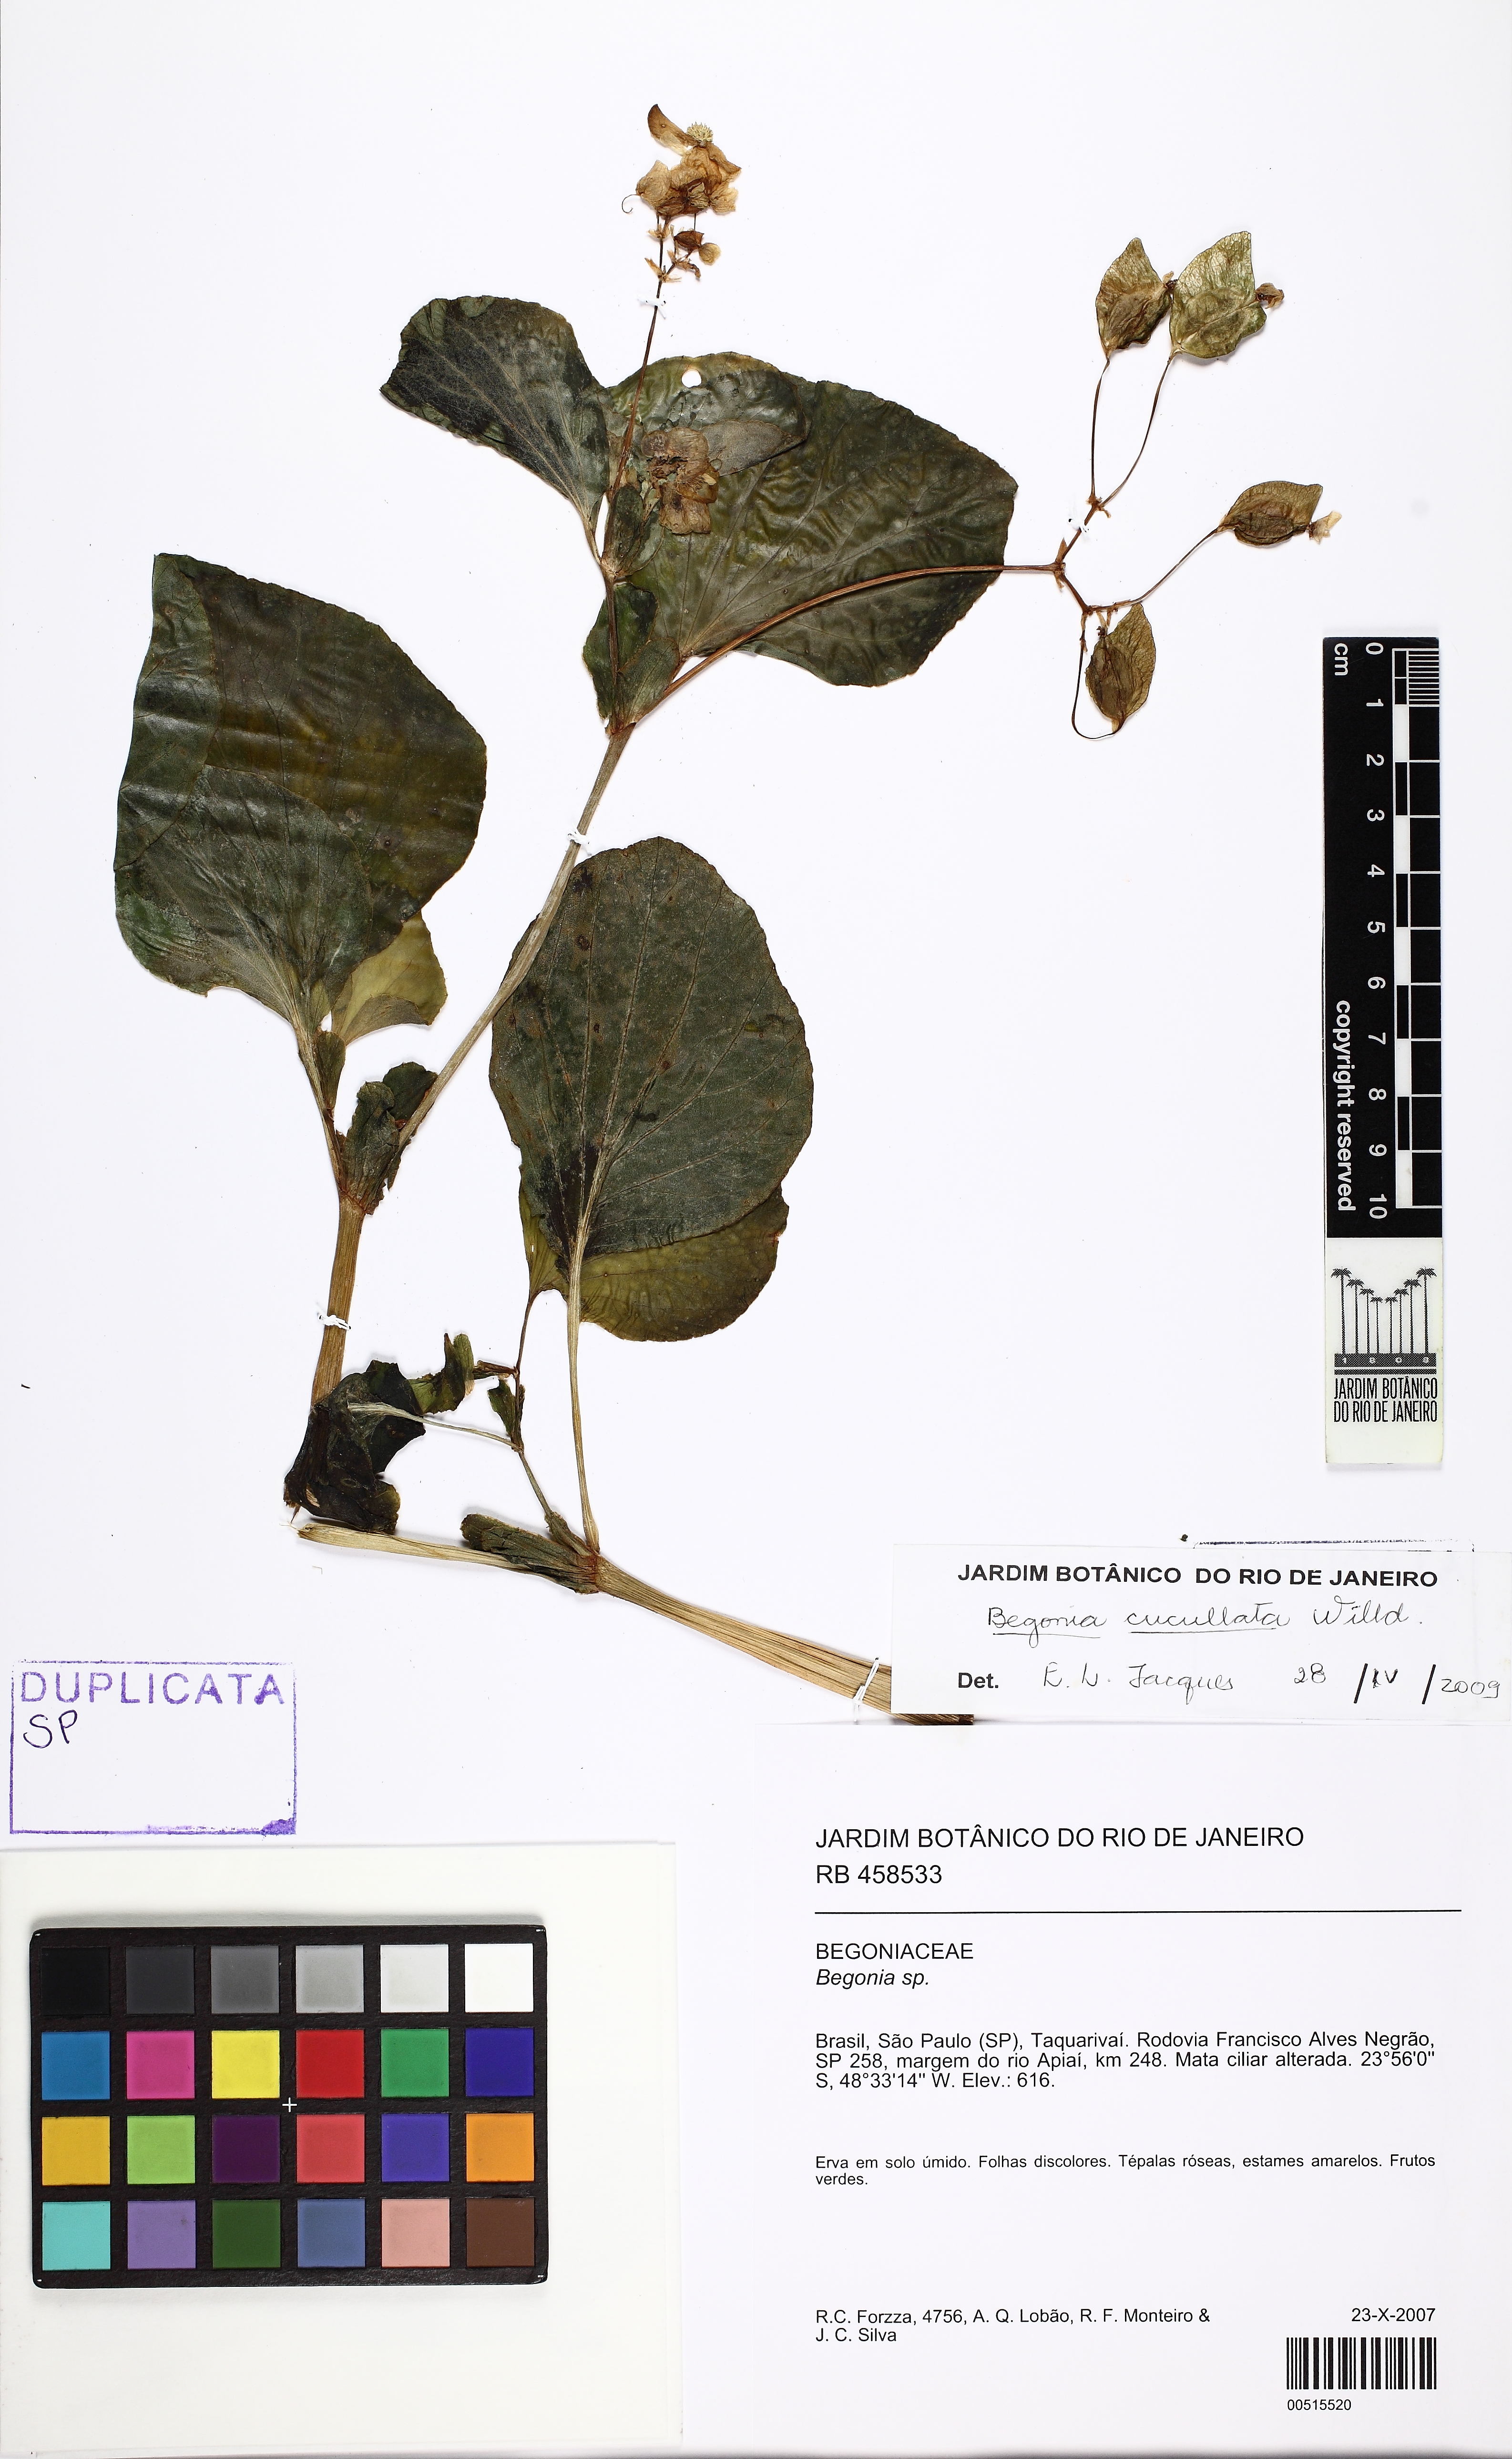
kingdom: Plantae
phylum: Tracheophyta
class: Magnoliopsida
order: Cucurbitales
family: Begoniaceae
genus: Begonia
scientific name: Begonia cucullata
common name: Clubbed begonia
